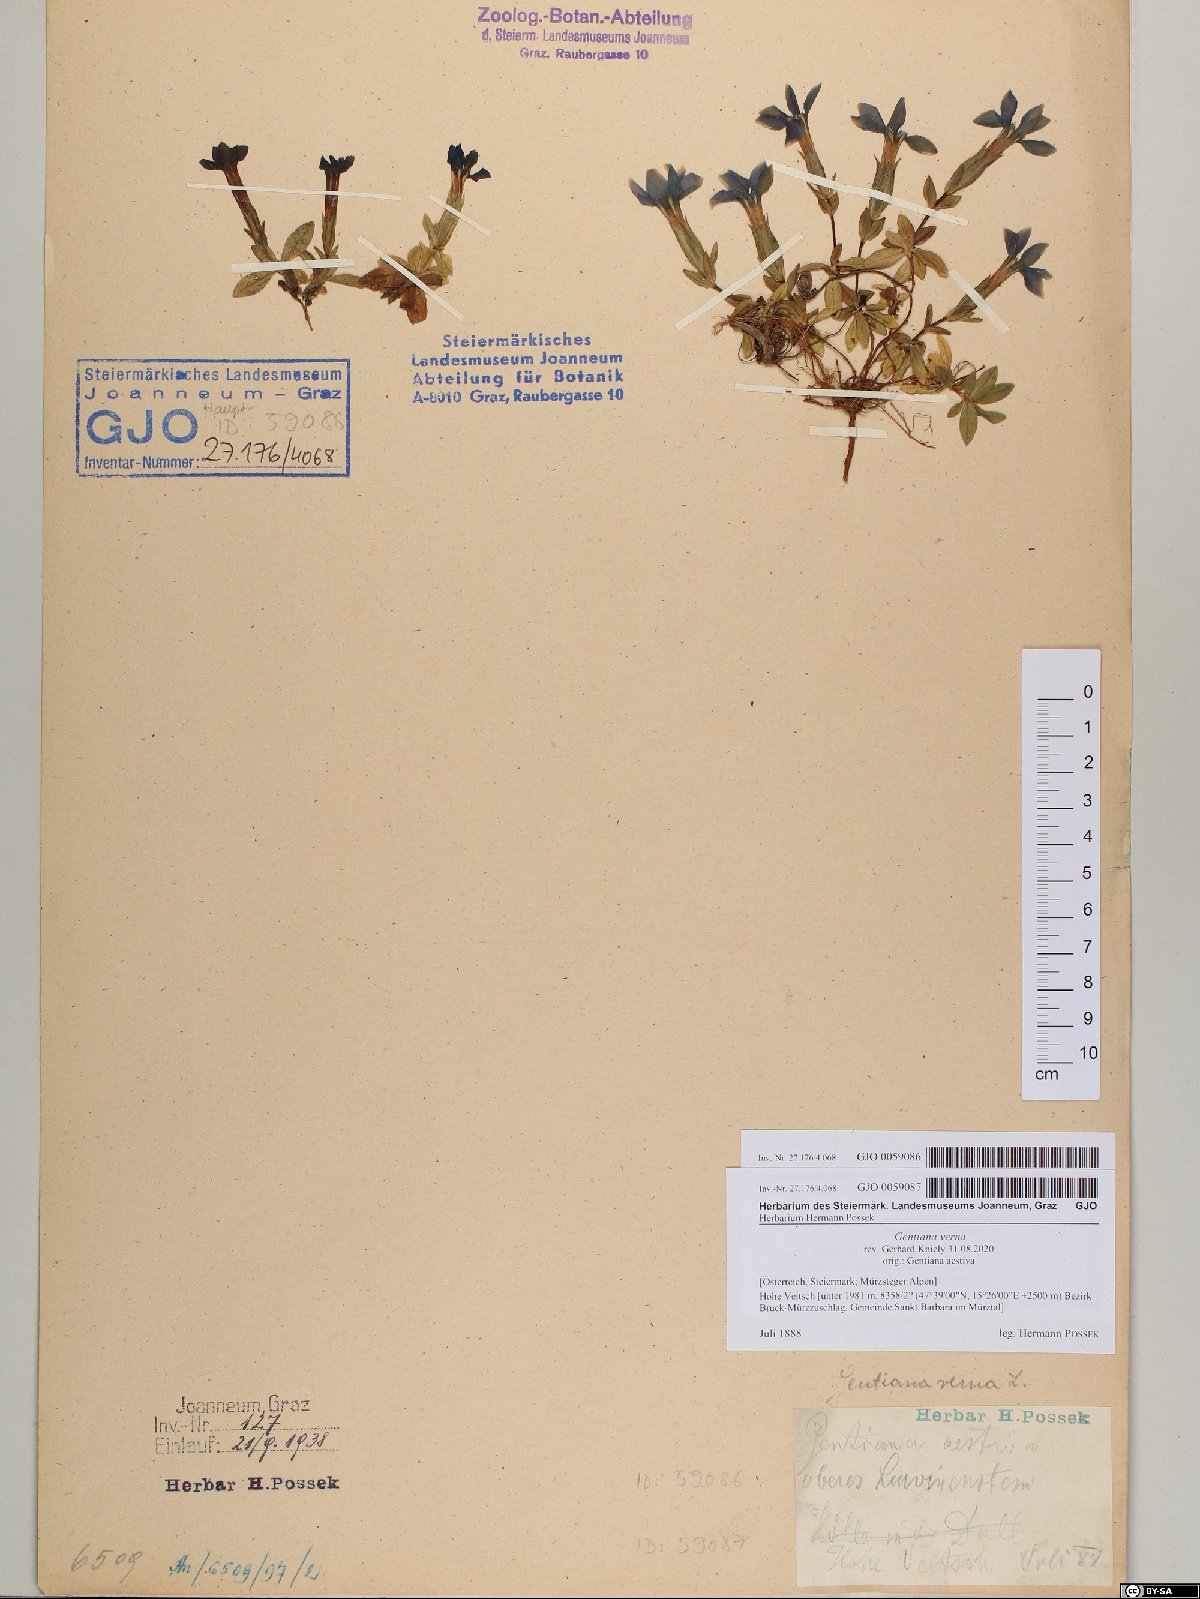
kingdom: Plantae
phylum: Tracheophyta
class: Magnoliopsida
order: Gentianales
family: Gentianaceae
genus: Gentiana
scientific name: Gentiana verna
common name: Spring gentian
